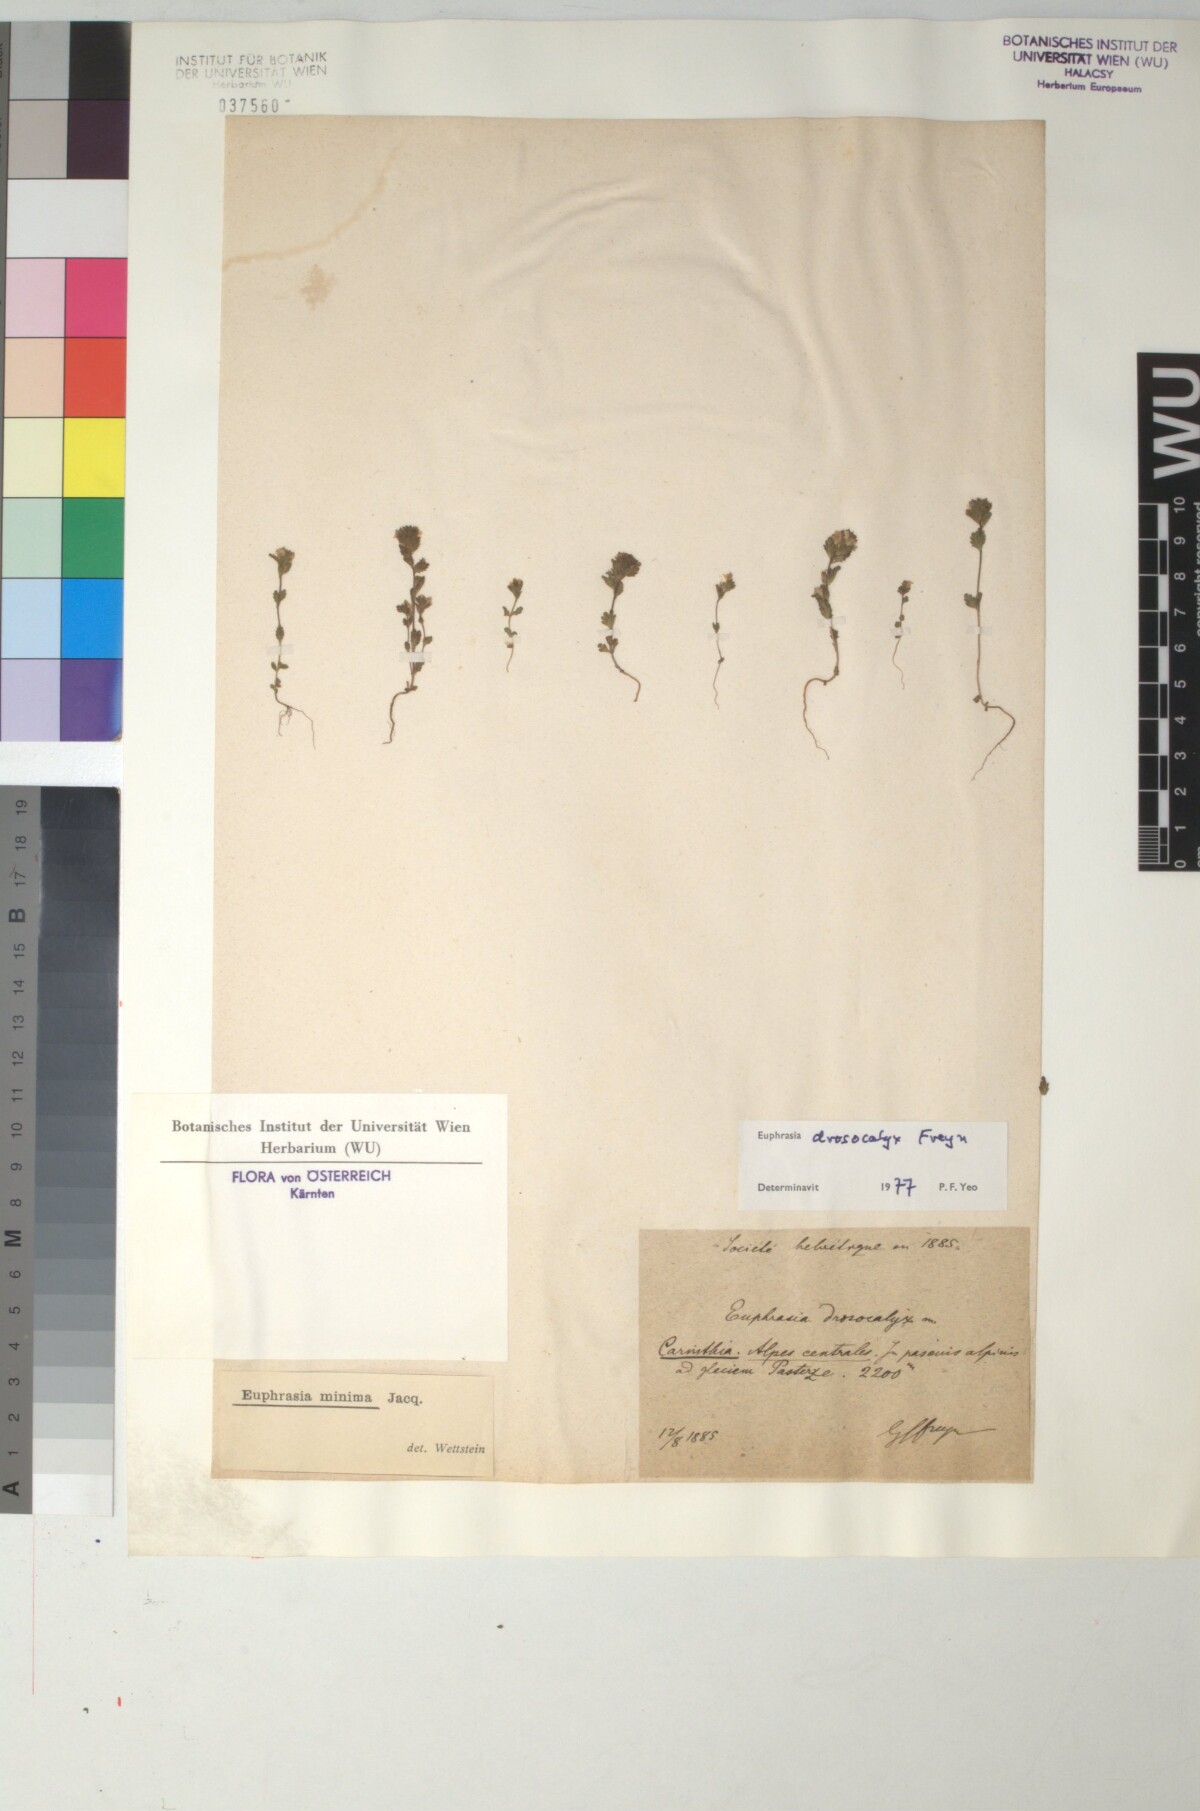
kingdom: Plantae
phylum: Tracheophyta
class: Magnoliopsida
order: Lamiales
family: Orobanchaceae
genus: Euphrasia
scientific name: Euphrasia drosocalyx
